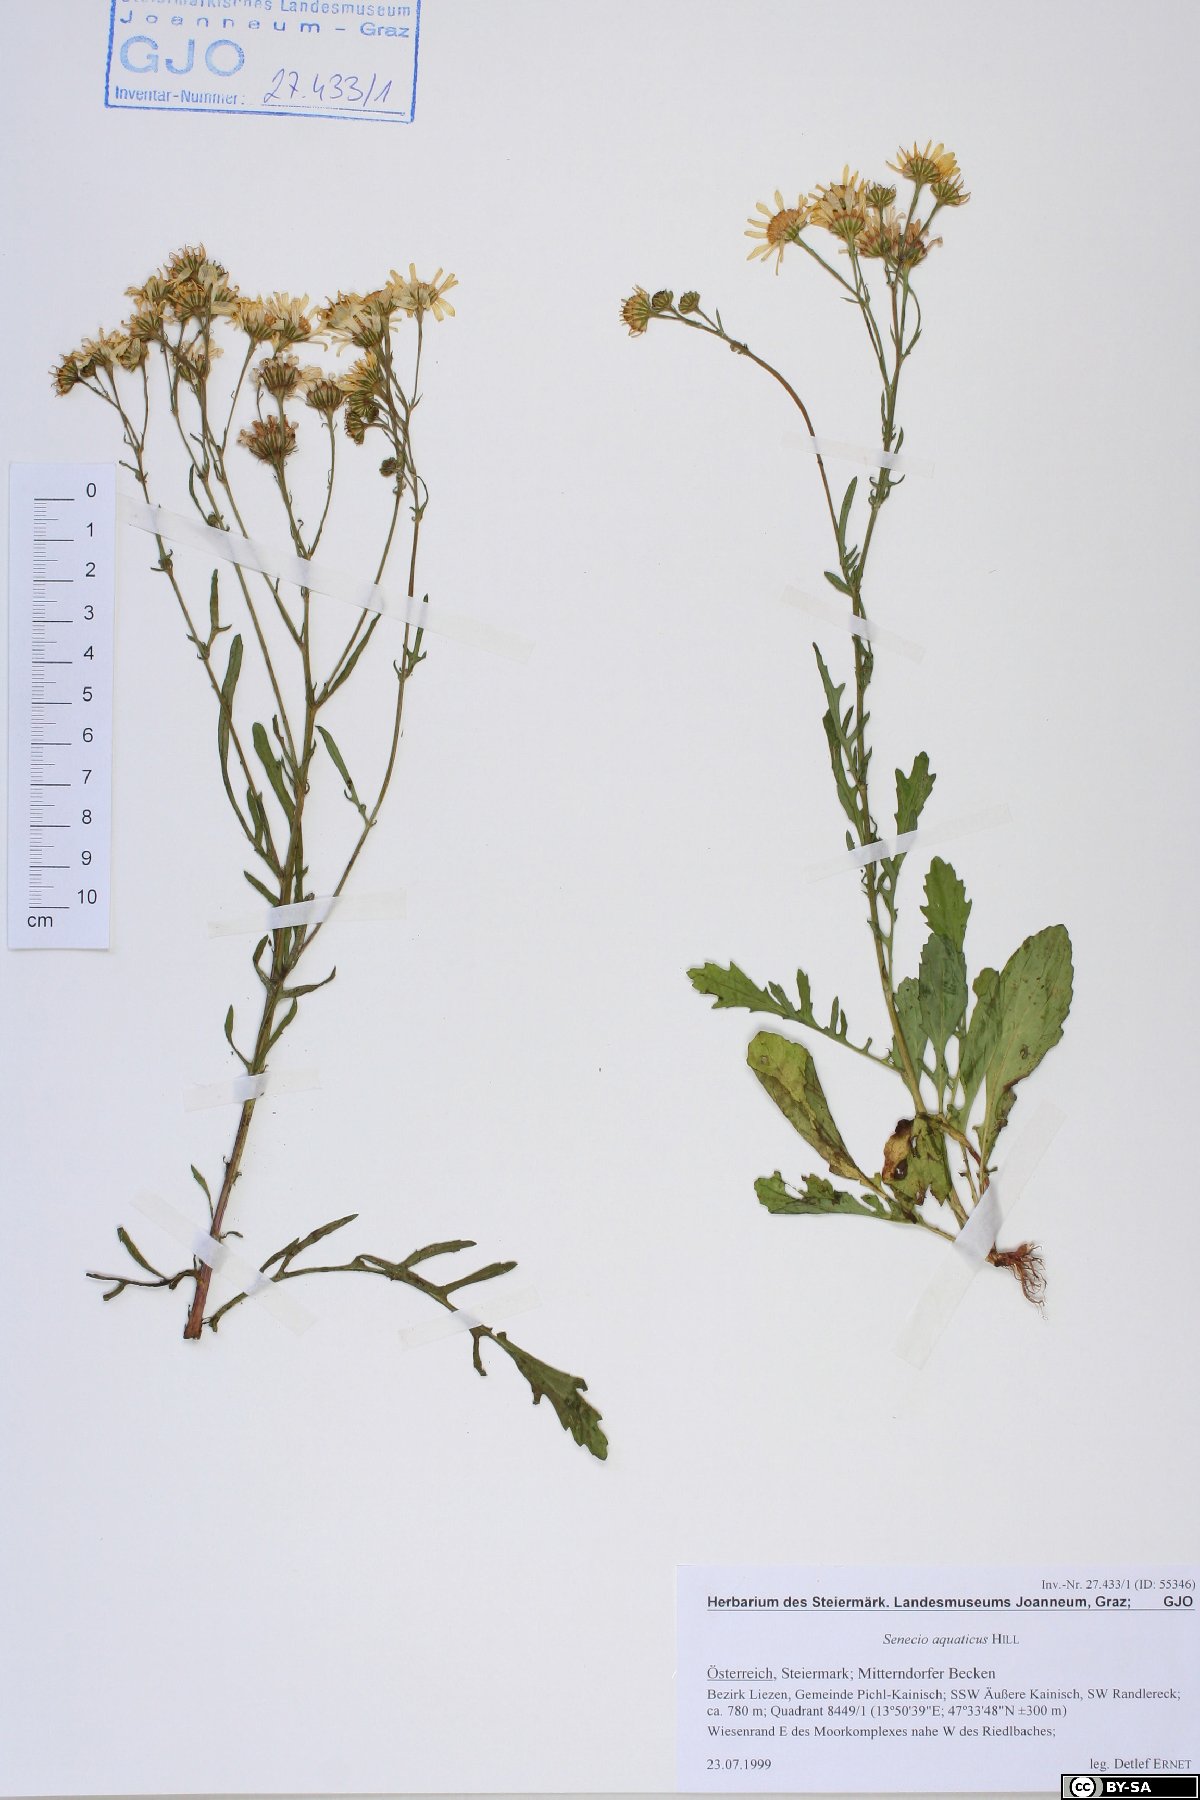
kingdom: Plantae
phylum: Tracheophyta
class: Magnoliopsida
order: Asterales
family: Asteraceae
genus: Jacobaea
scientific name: Jacobaea aquatica
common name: Water ragwort
